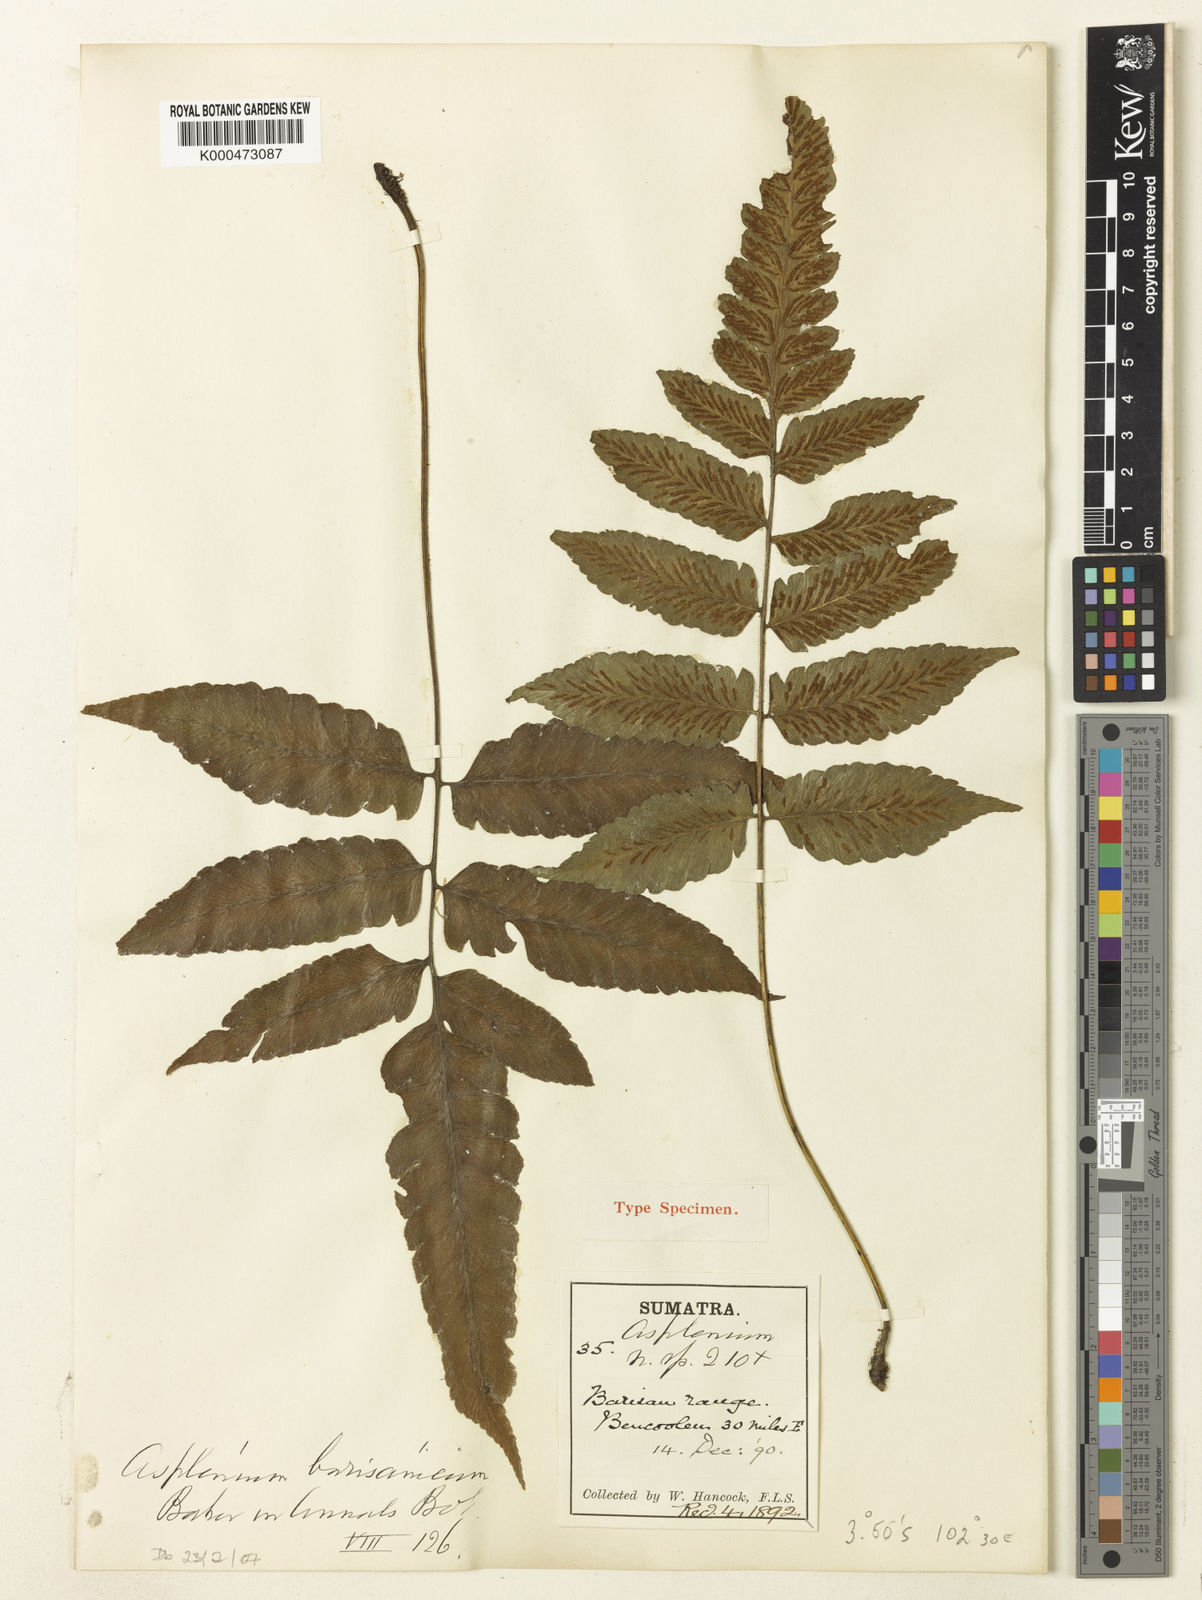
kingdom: Plantae
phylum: Tracheophyta
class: Polypodiopsida
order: Polypodiales
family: Athyriaceae
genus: Diplazium
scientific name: Diplazium barisanicum
